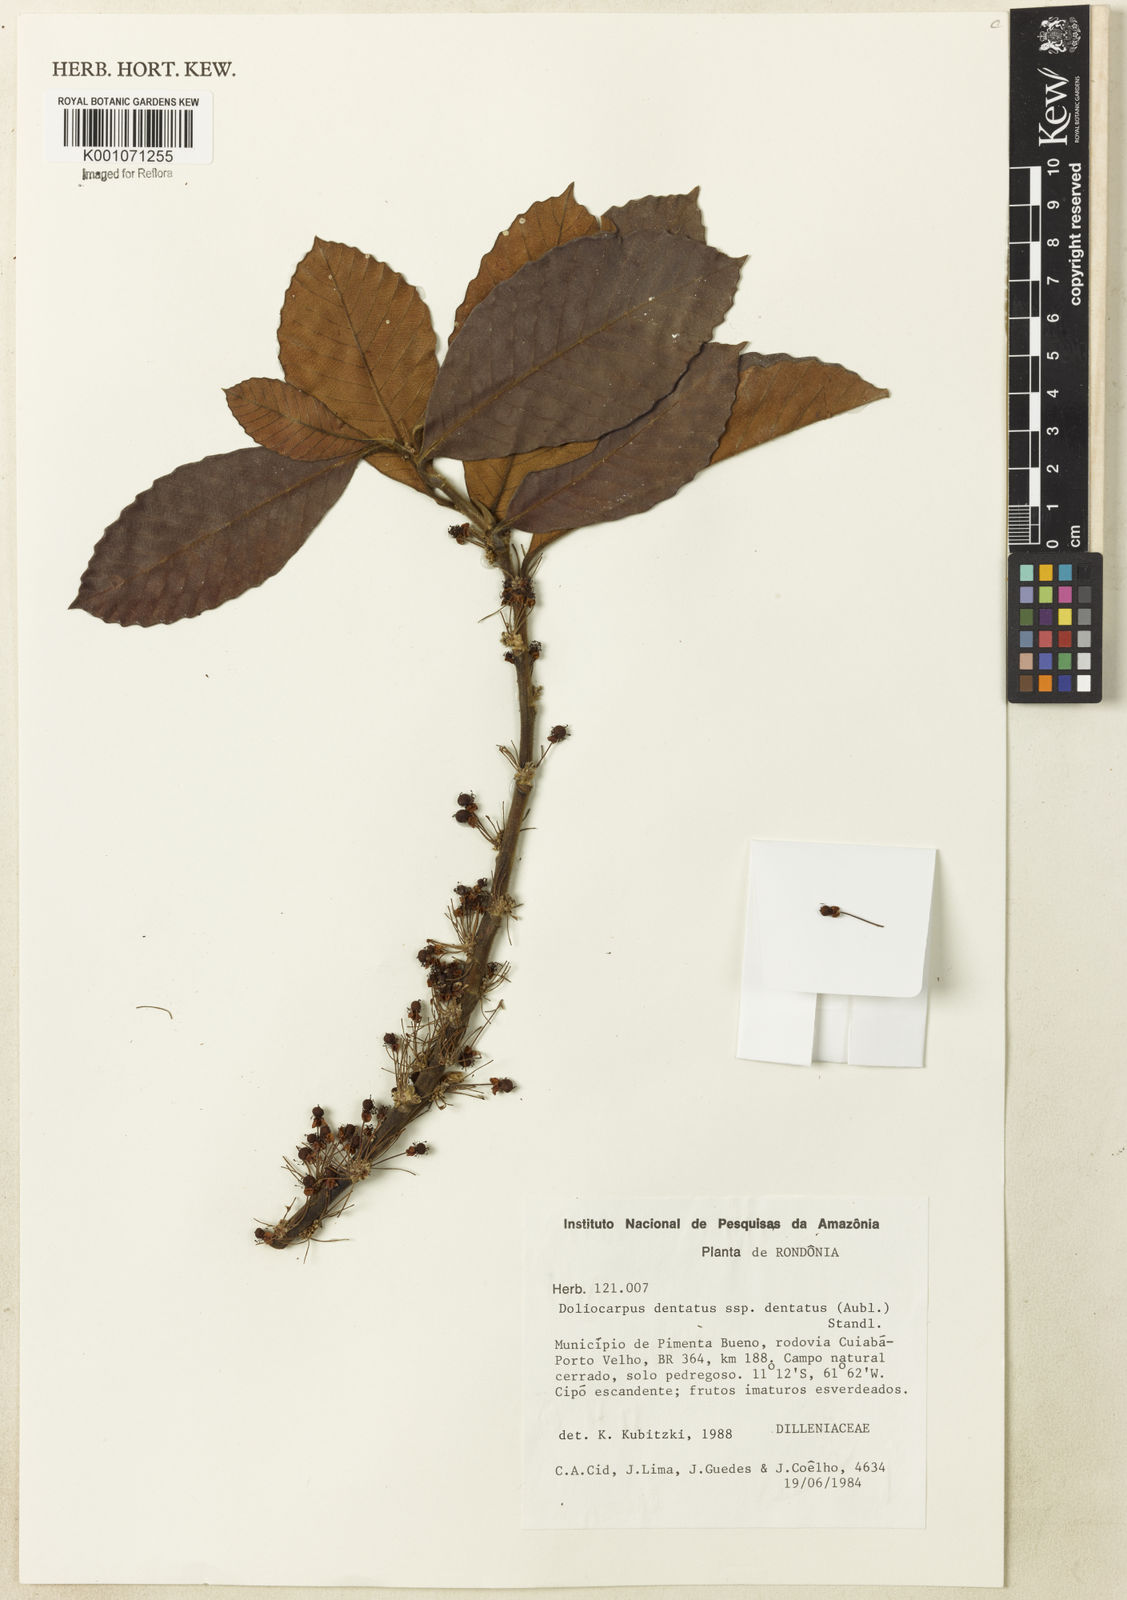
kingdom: Plantae
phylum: Tracheophyta
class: Magnoliopsida
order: Dilleniales
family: Dilleniaceae
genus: Doliocarpus
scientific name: Doliocarpus dentatus
